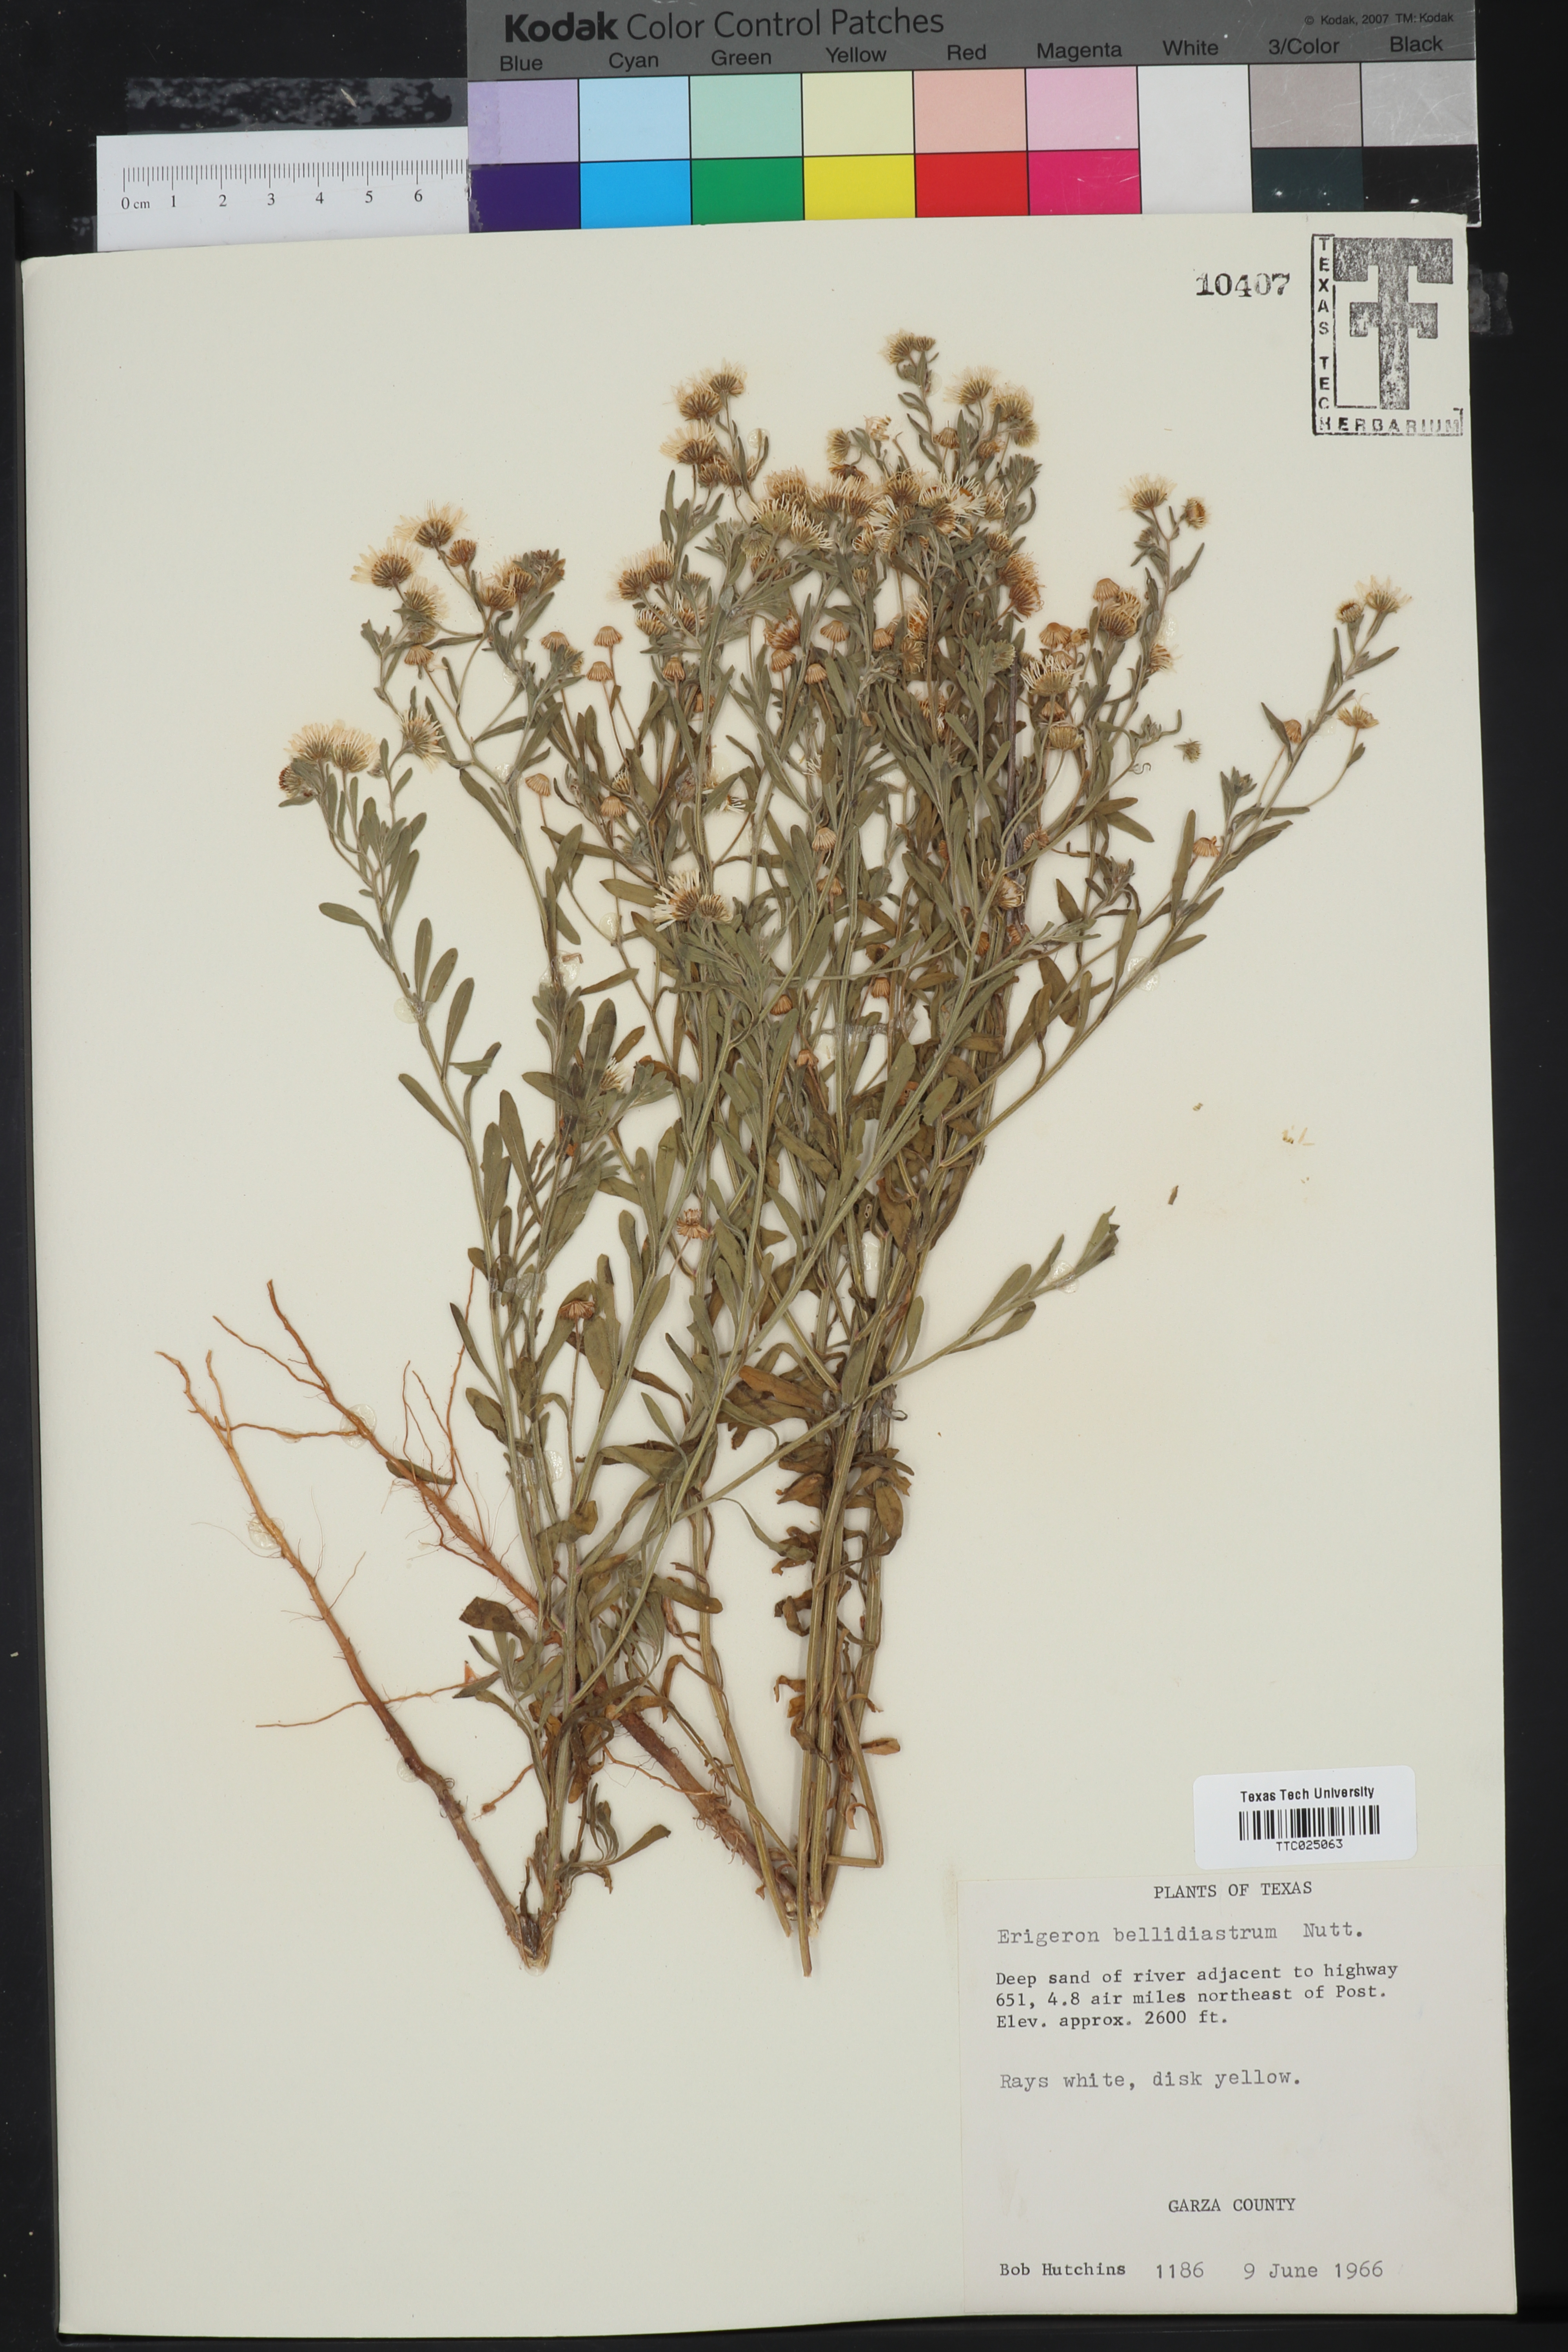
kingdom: Plantae
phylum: Tracheophyta
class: Magnoliopsida
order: Asterales
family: Asteraceae
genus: Erigeron
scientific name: Erigeron bellidiastrum
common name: Sand fleabane
